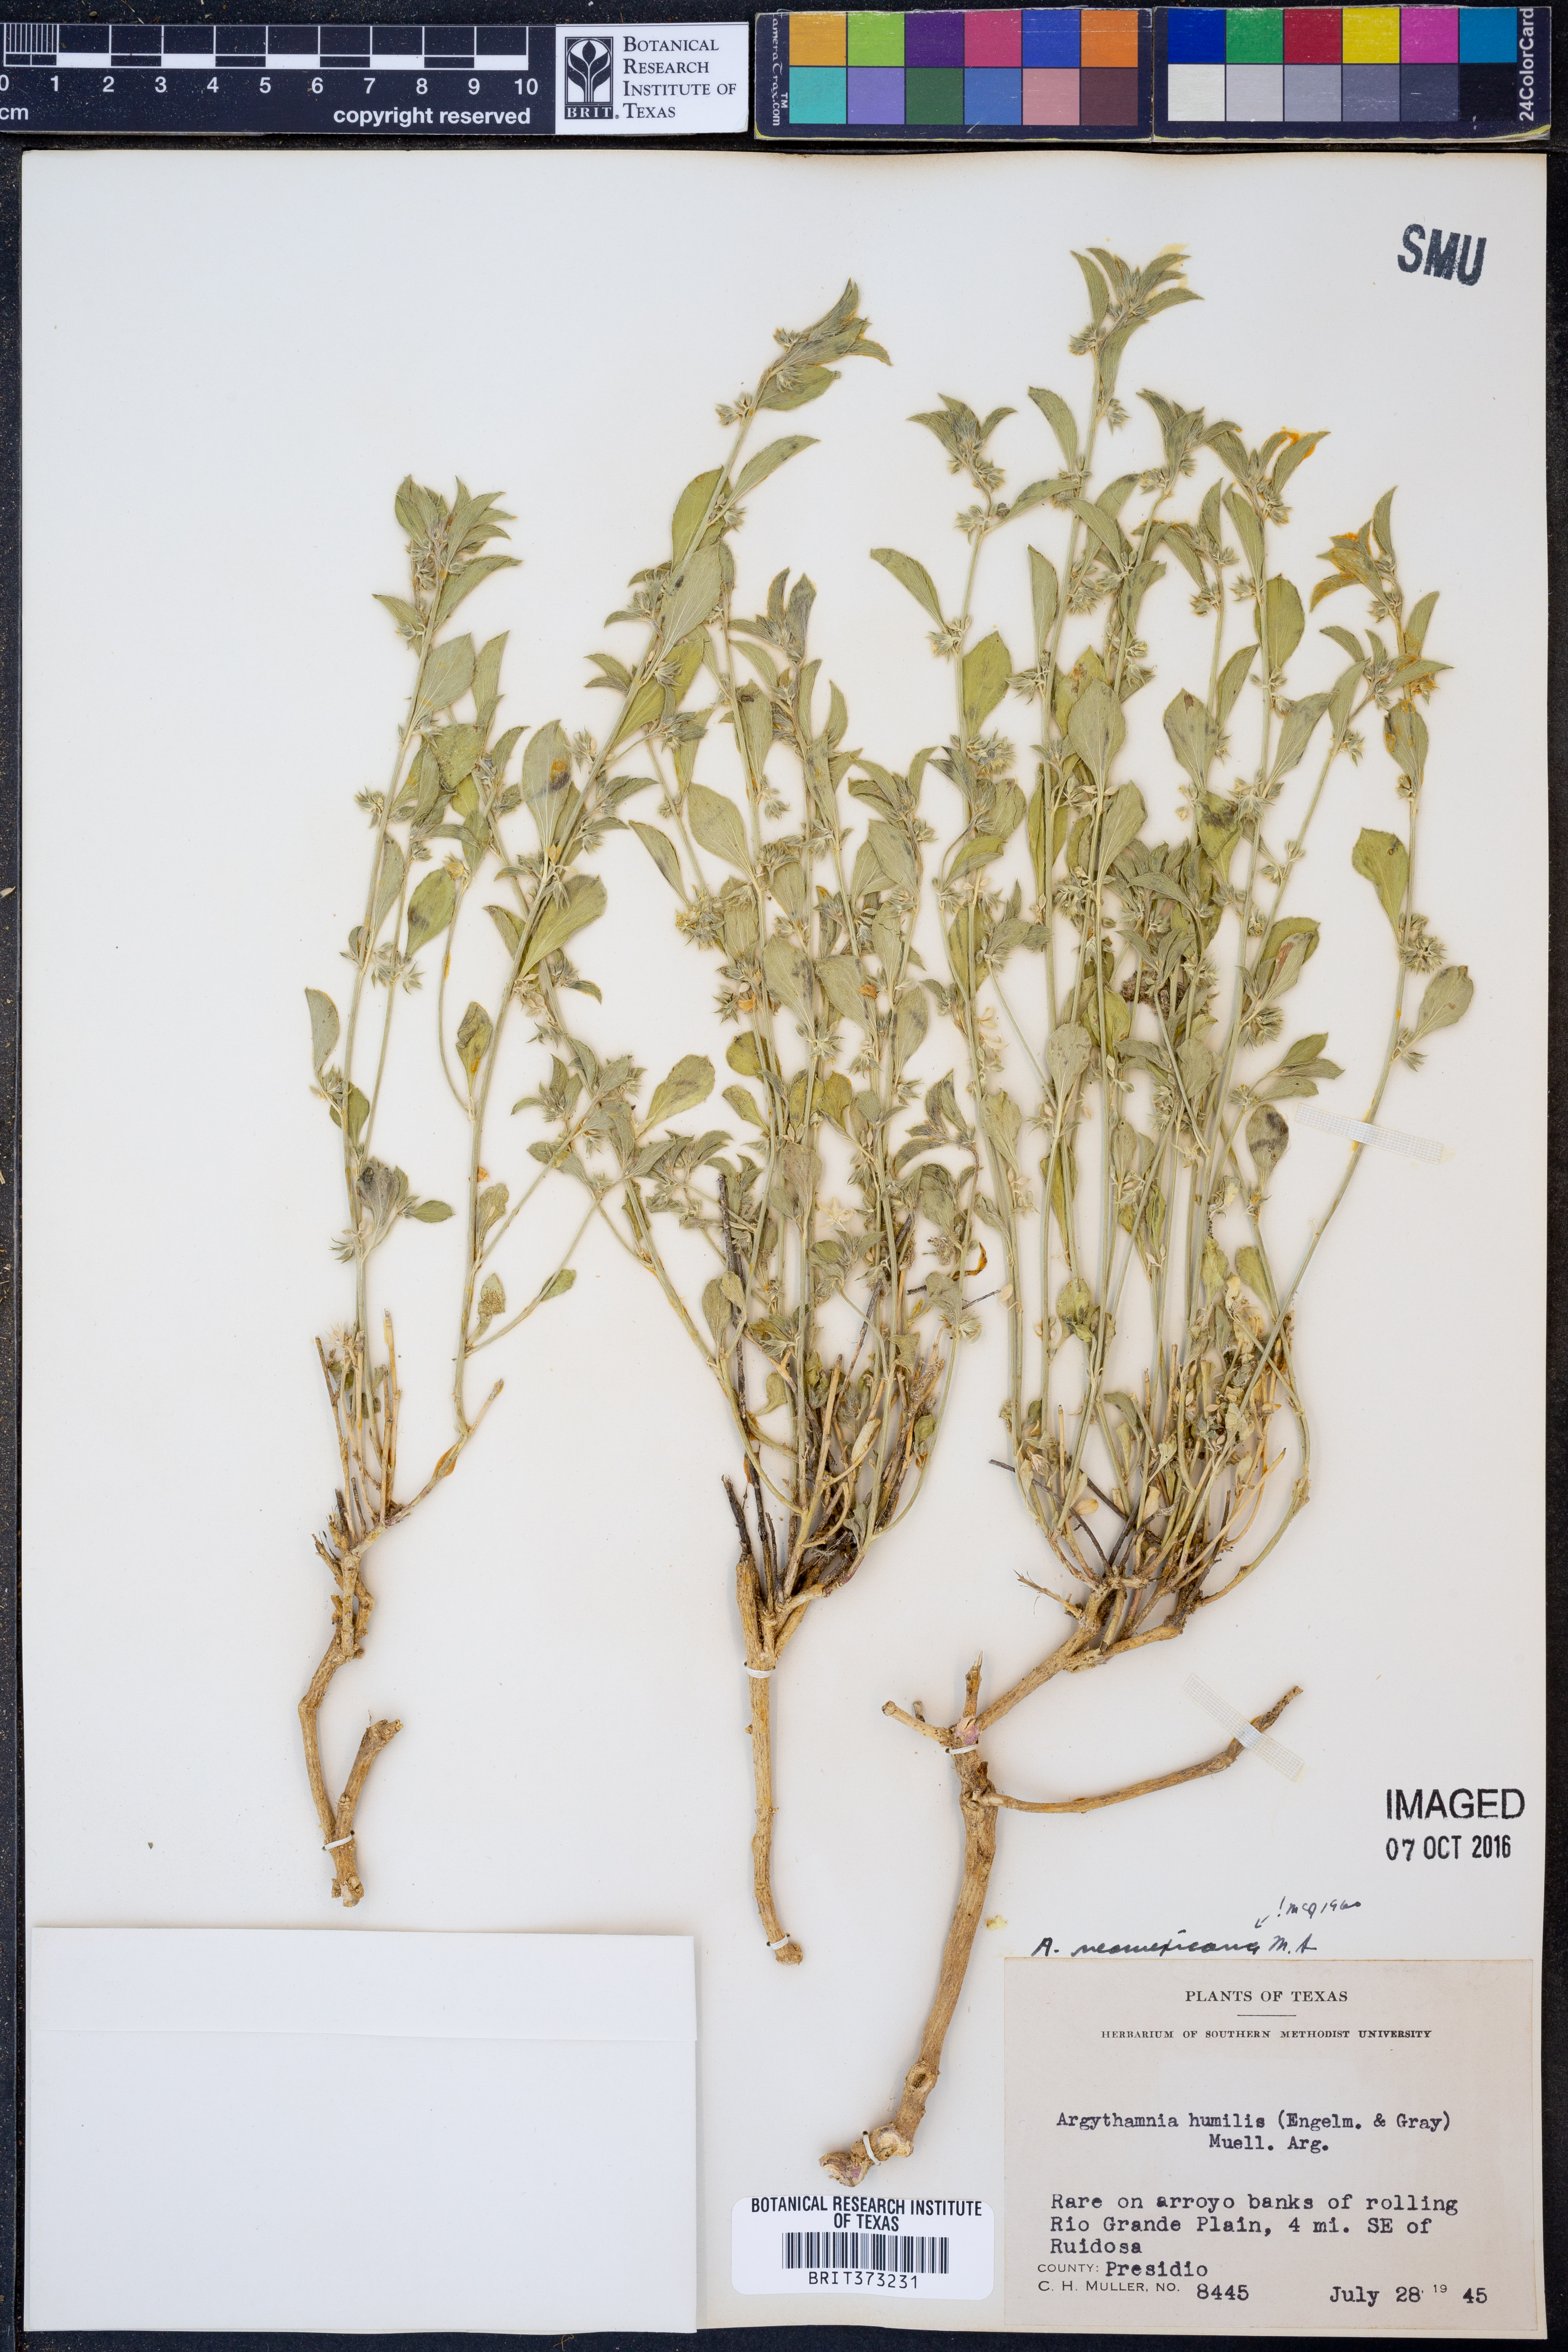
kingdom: Plantae
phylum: Tracheophyta
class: Magnoliopsida
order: Malpighiales
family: Euphorbiaceae
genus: Ditaxis
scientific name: Ditaxis serrata
